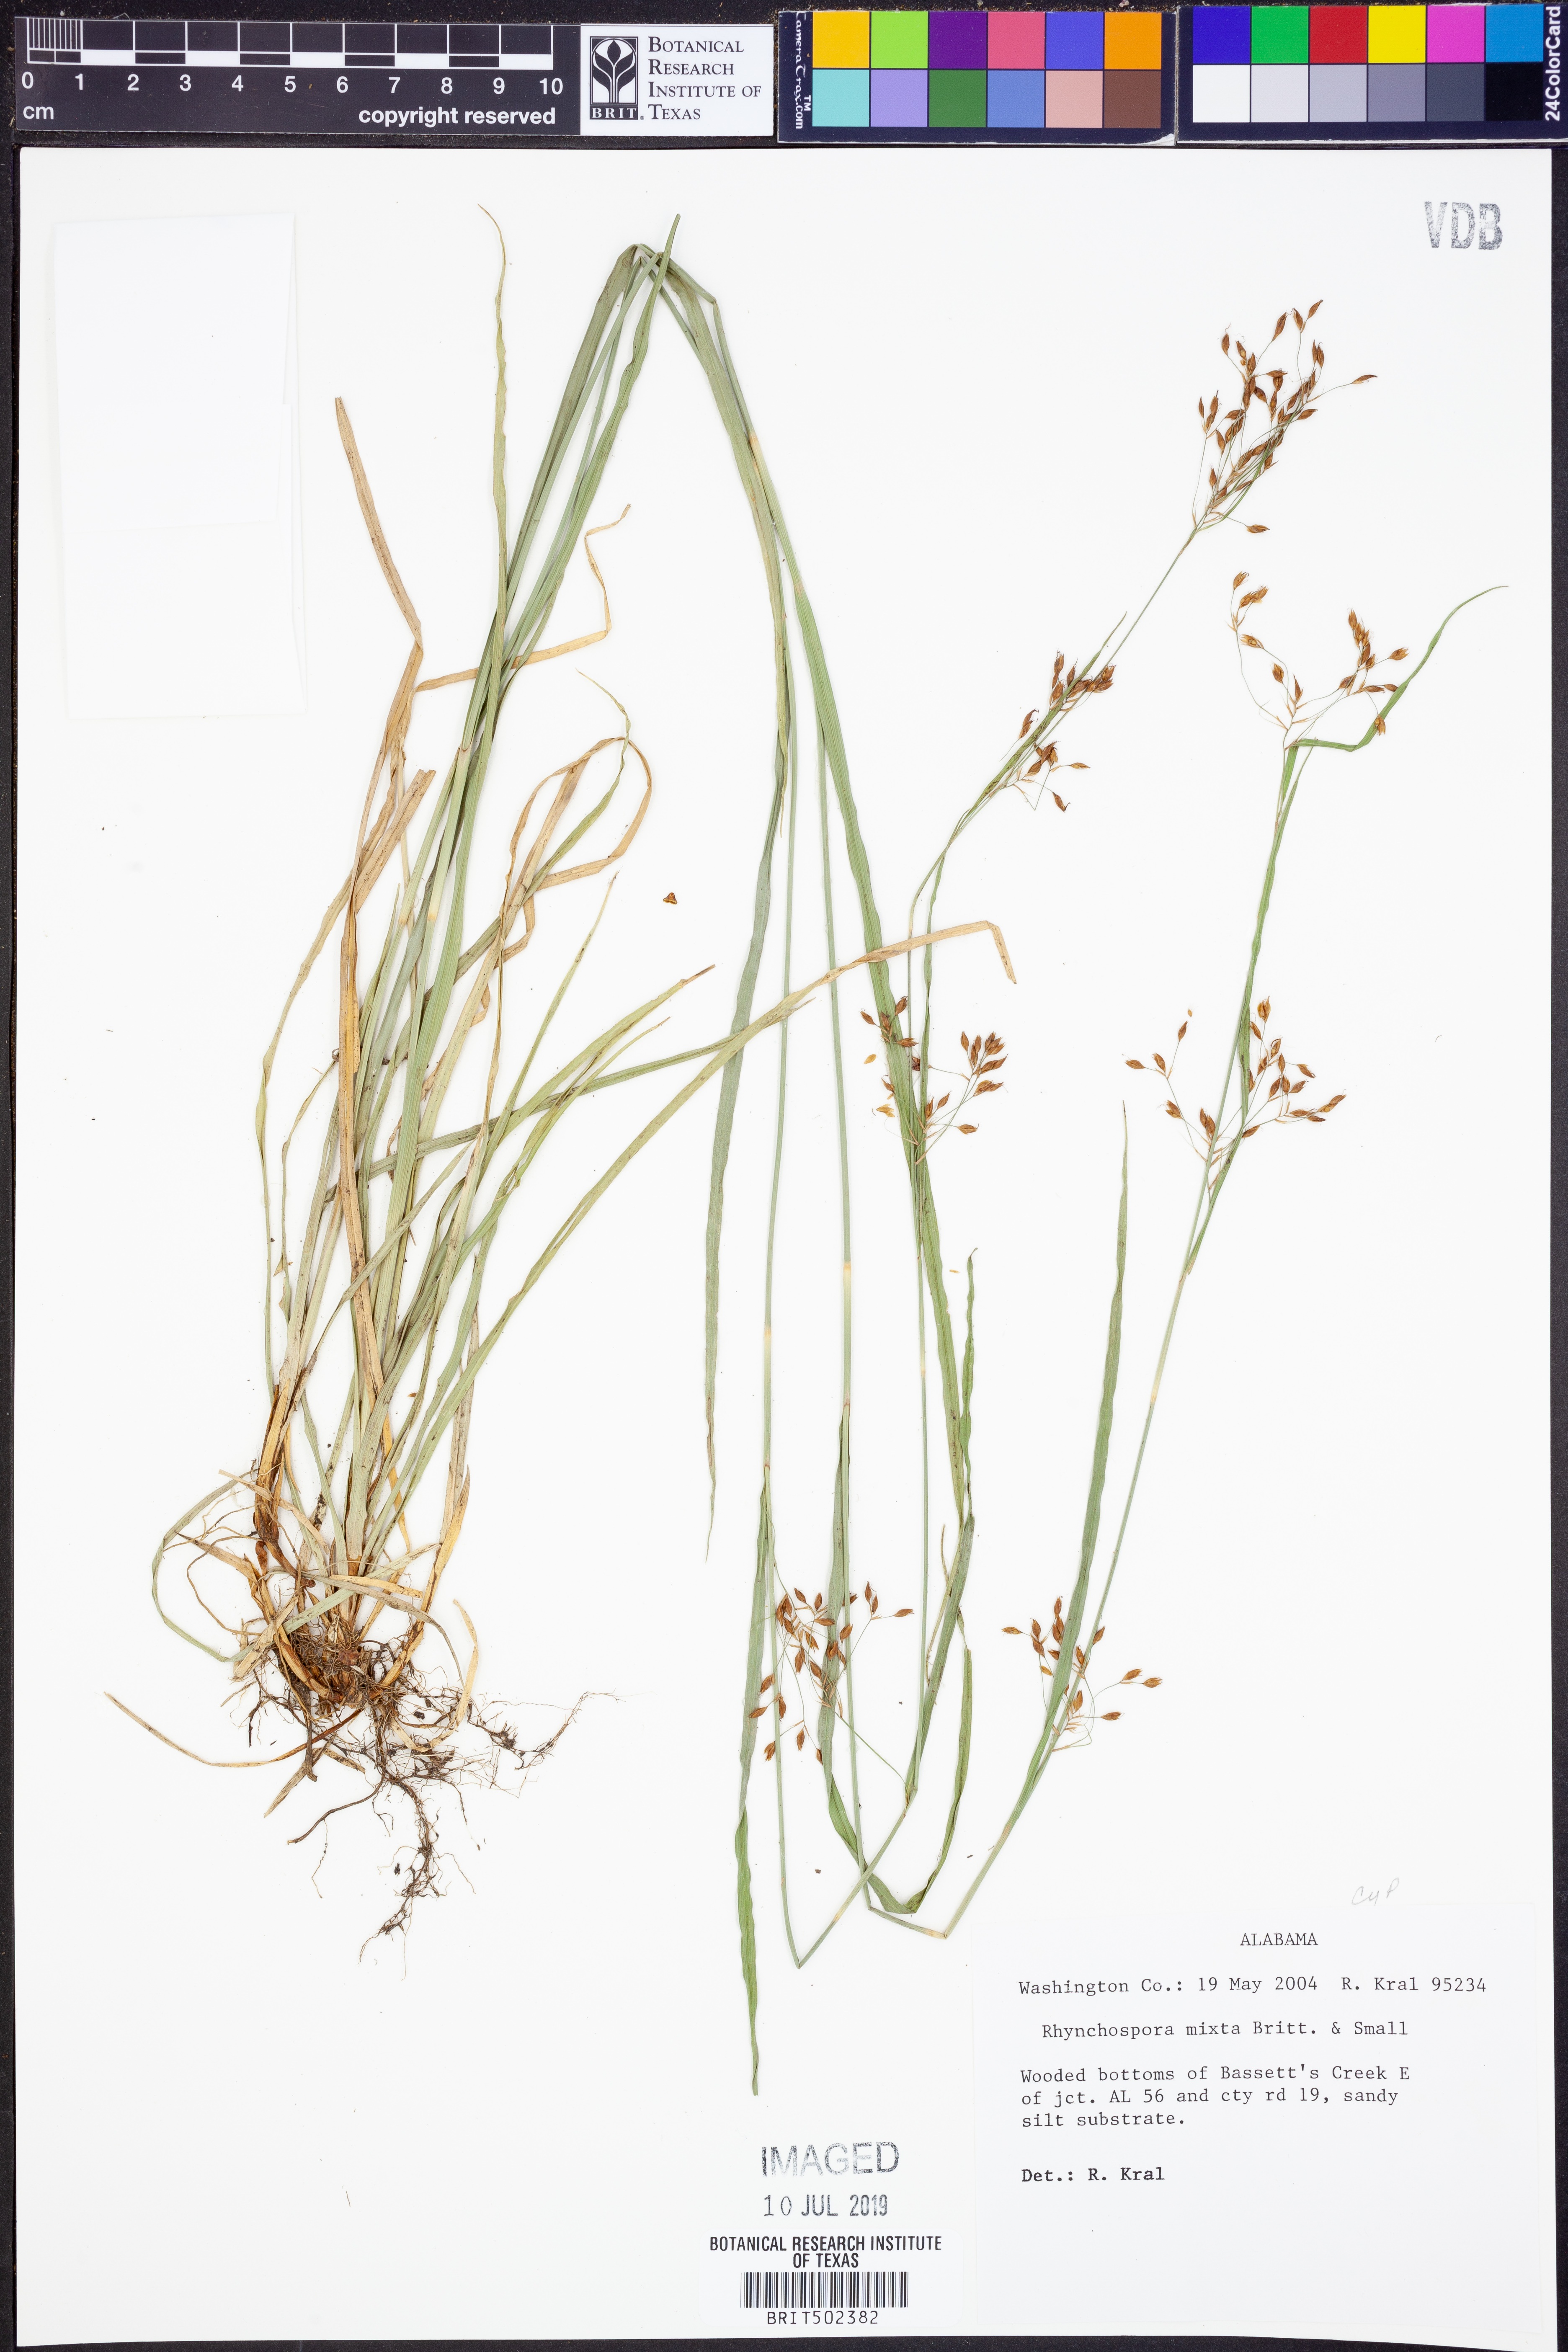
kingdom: Plantae
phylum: Tracheophyta
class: Liliopsida
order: Poales
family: Cyperaceae
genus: Rhynchospora
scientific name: Rhynchospora mixta
